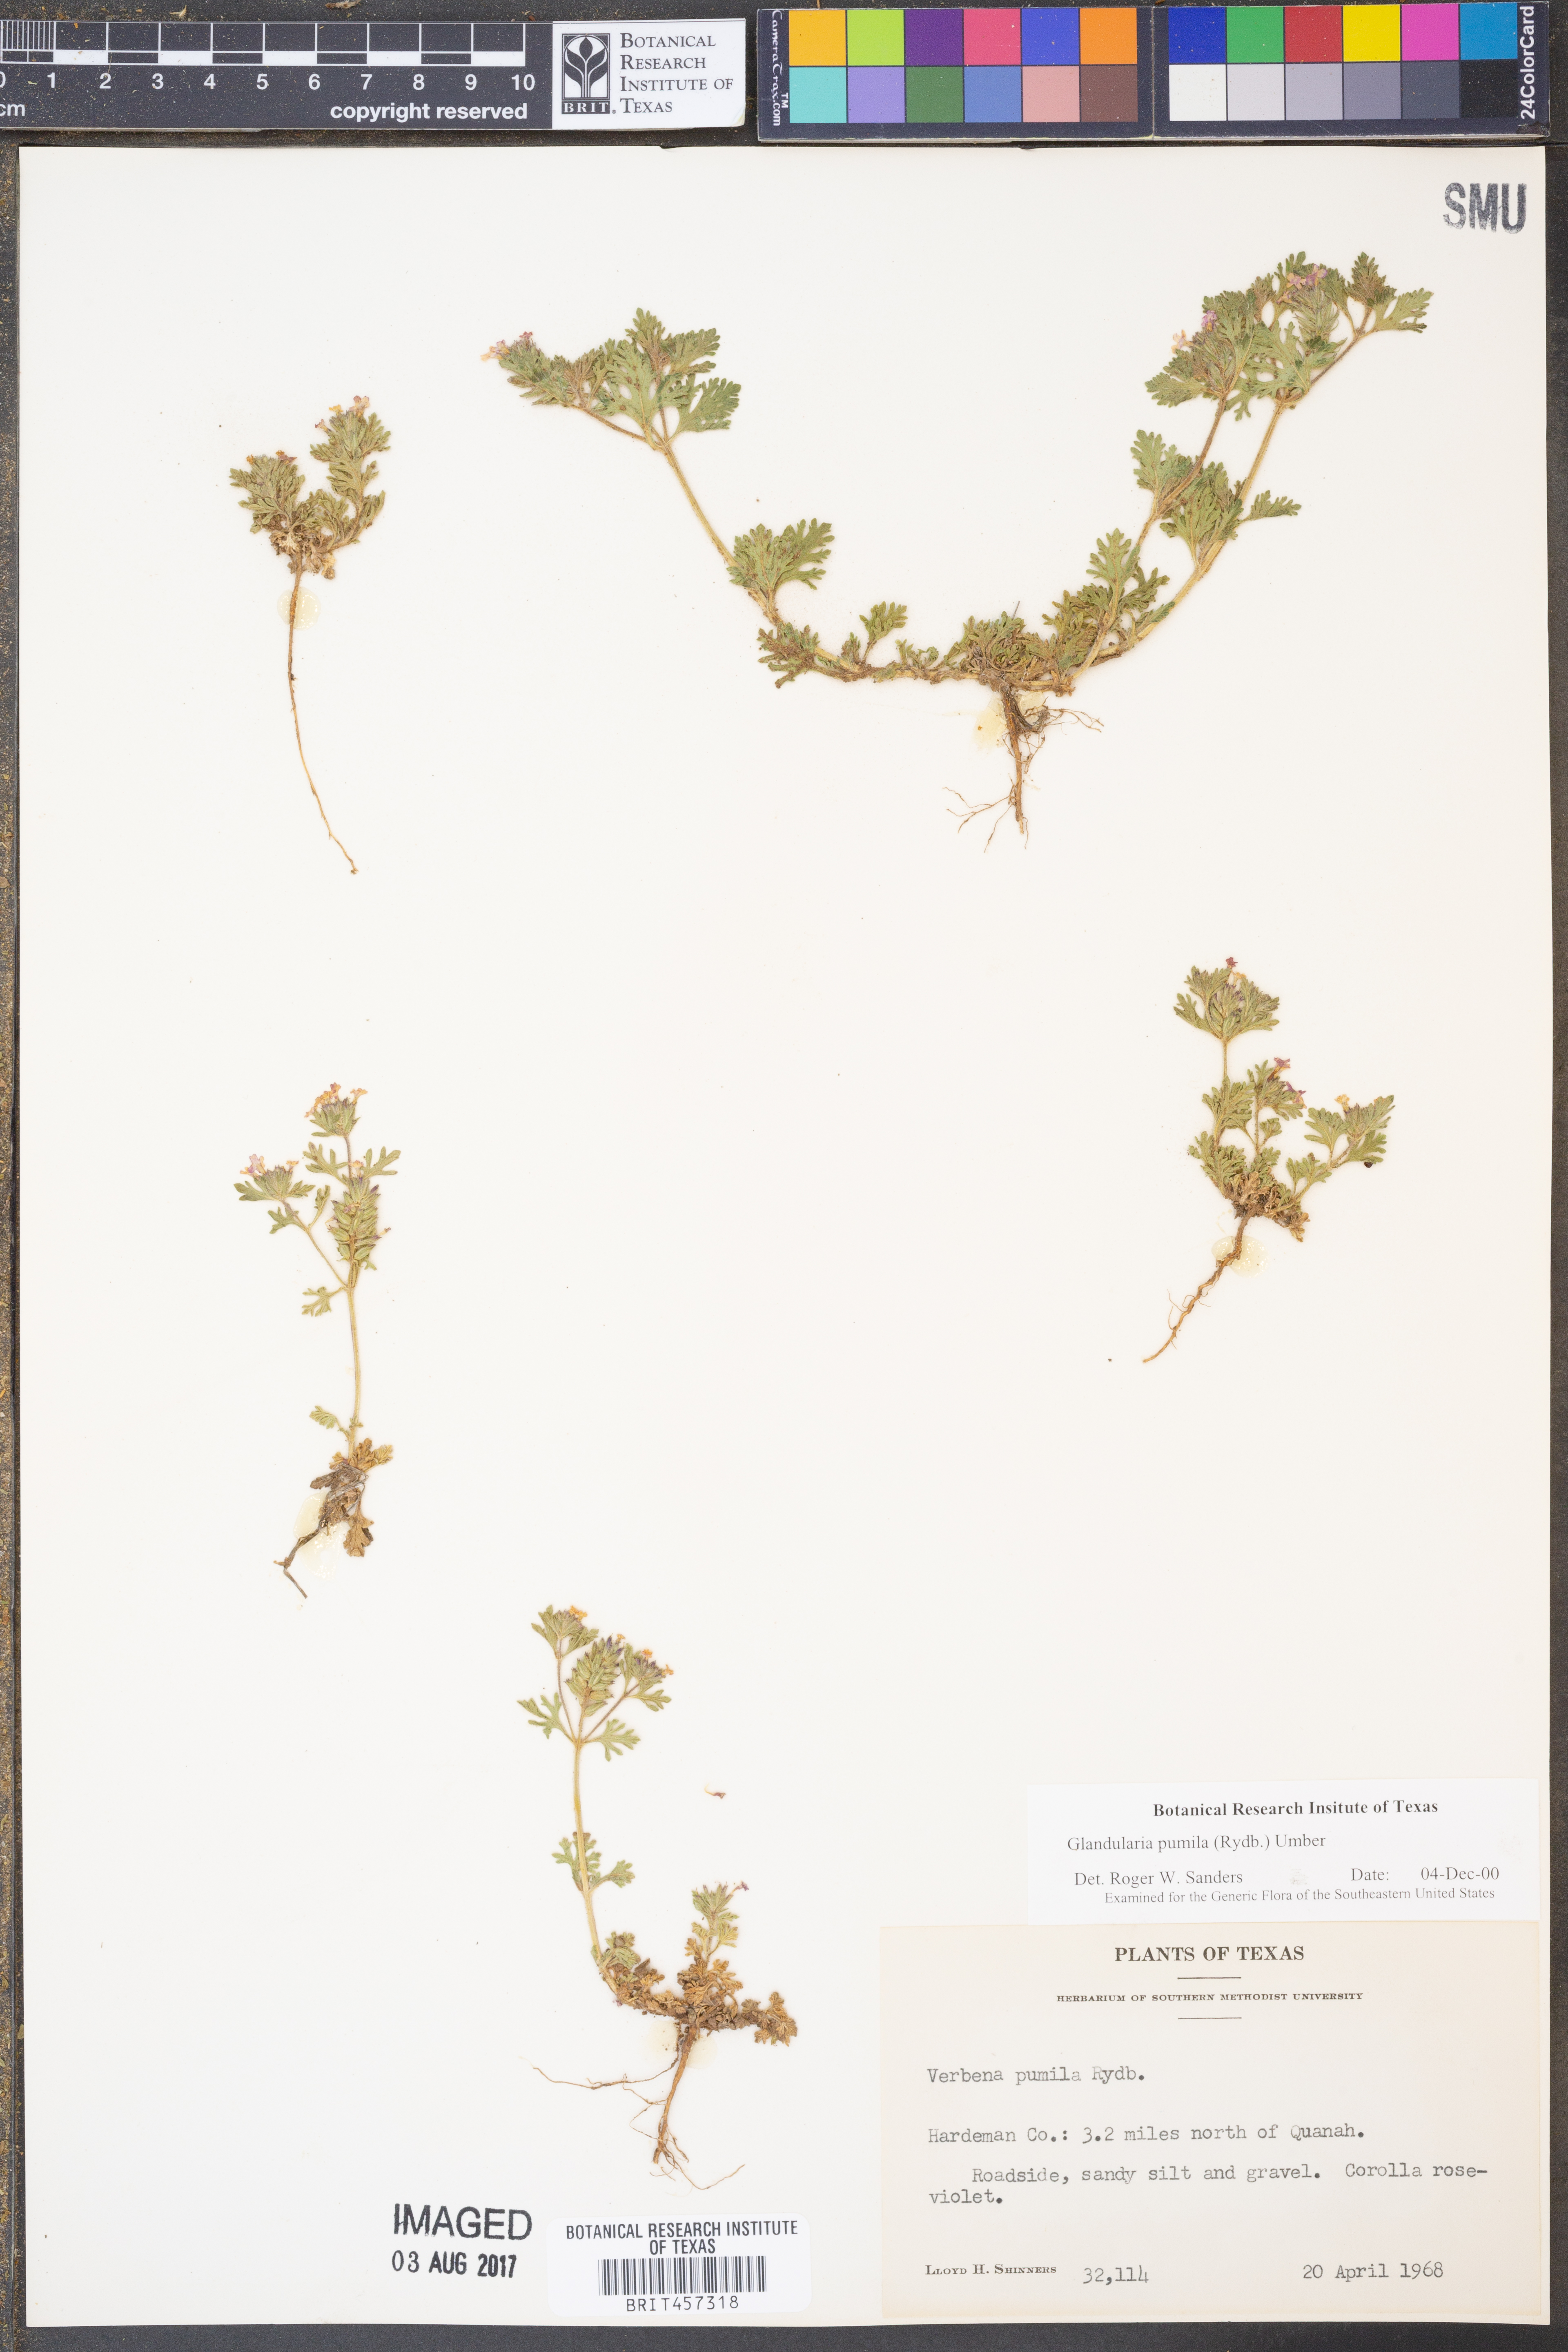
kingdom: Plantae
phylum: Tracheophyta
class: Magnoliopsida
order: Lamiales
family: Verbenaceae
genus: Verbena
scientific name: Verbena pumila
